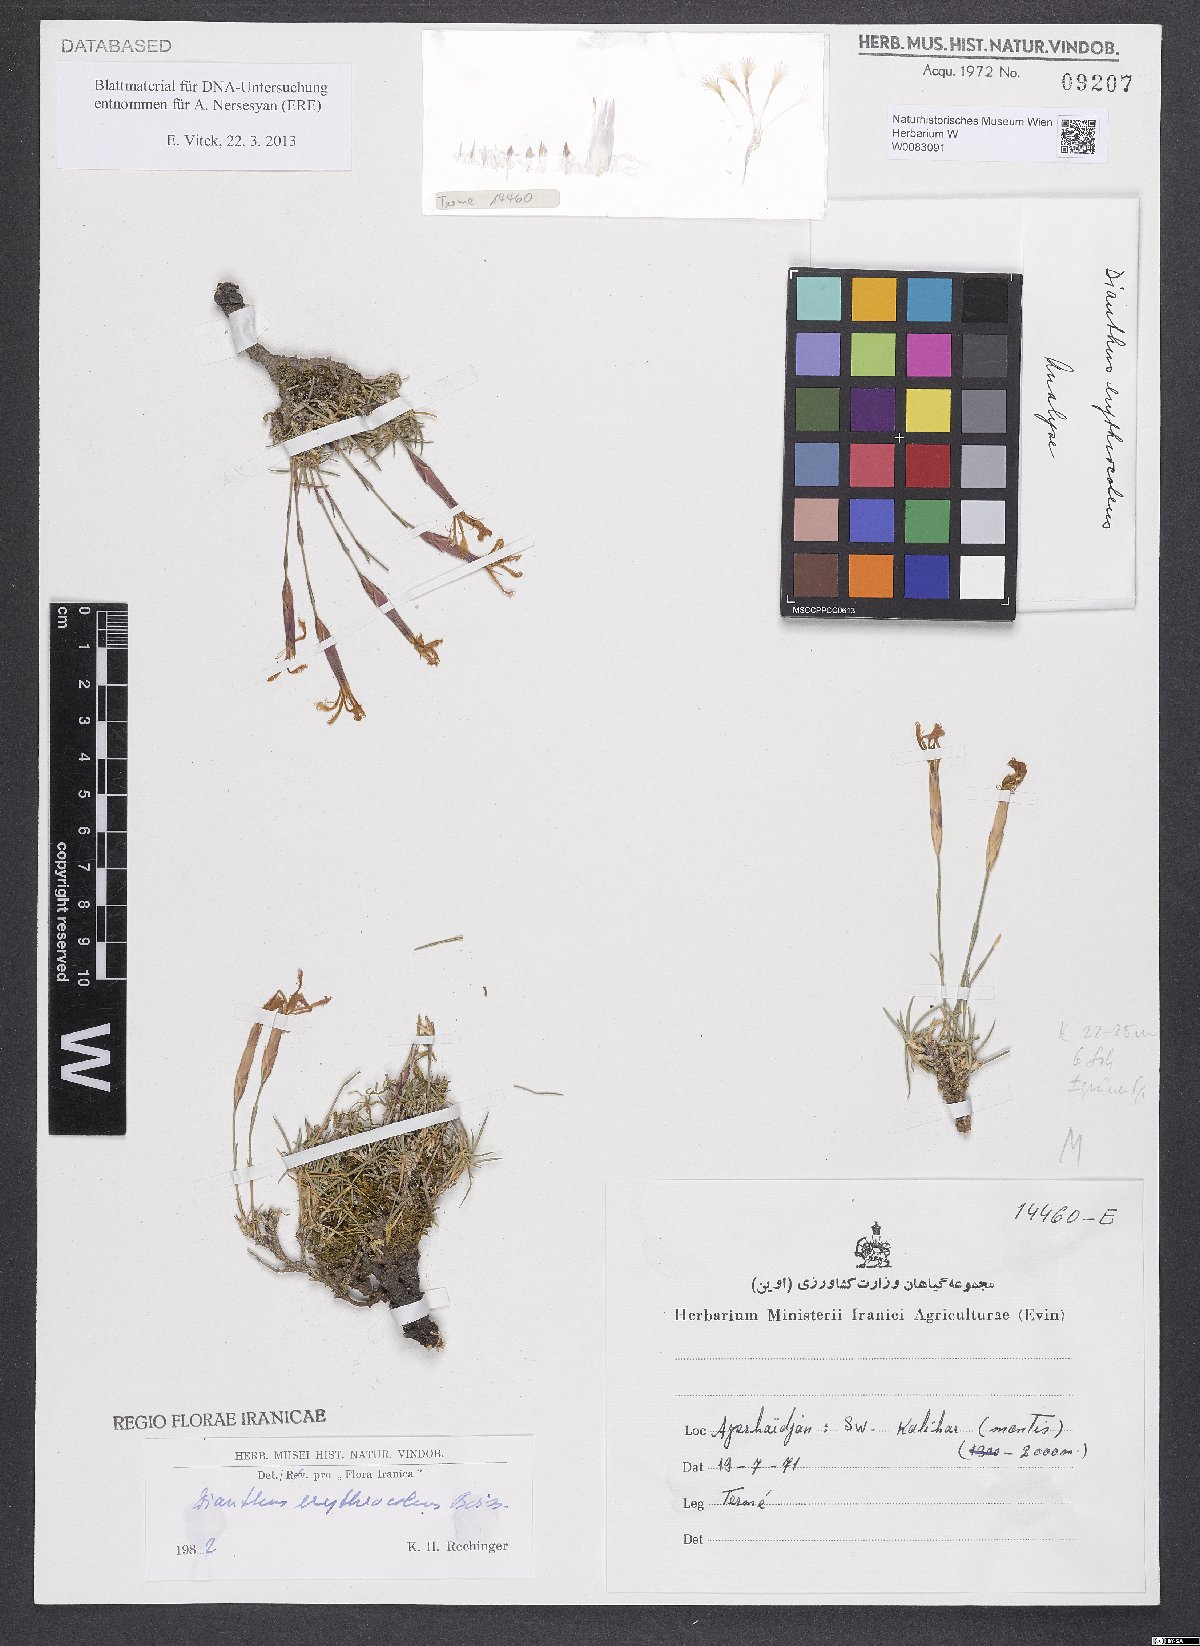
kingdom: Plantae
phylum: Tracheophyta
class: Magnoliopsida
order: Caryophyllales
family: Caryophyllaceae
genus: Dianthus
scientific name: Dianthus erythrocoleus
